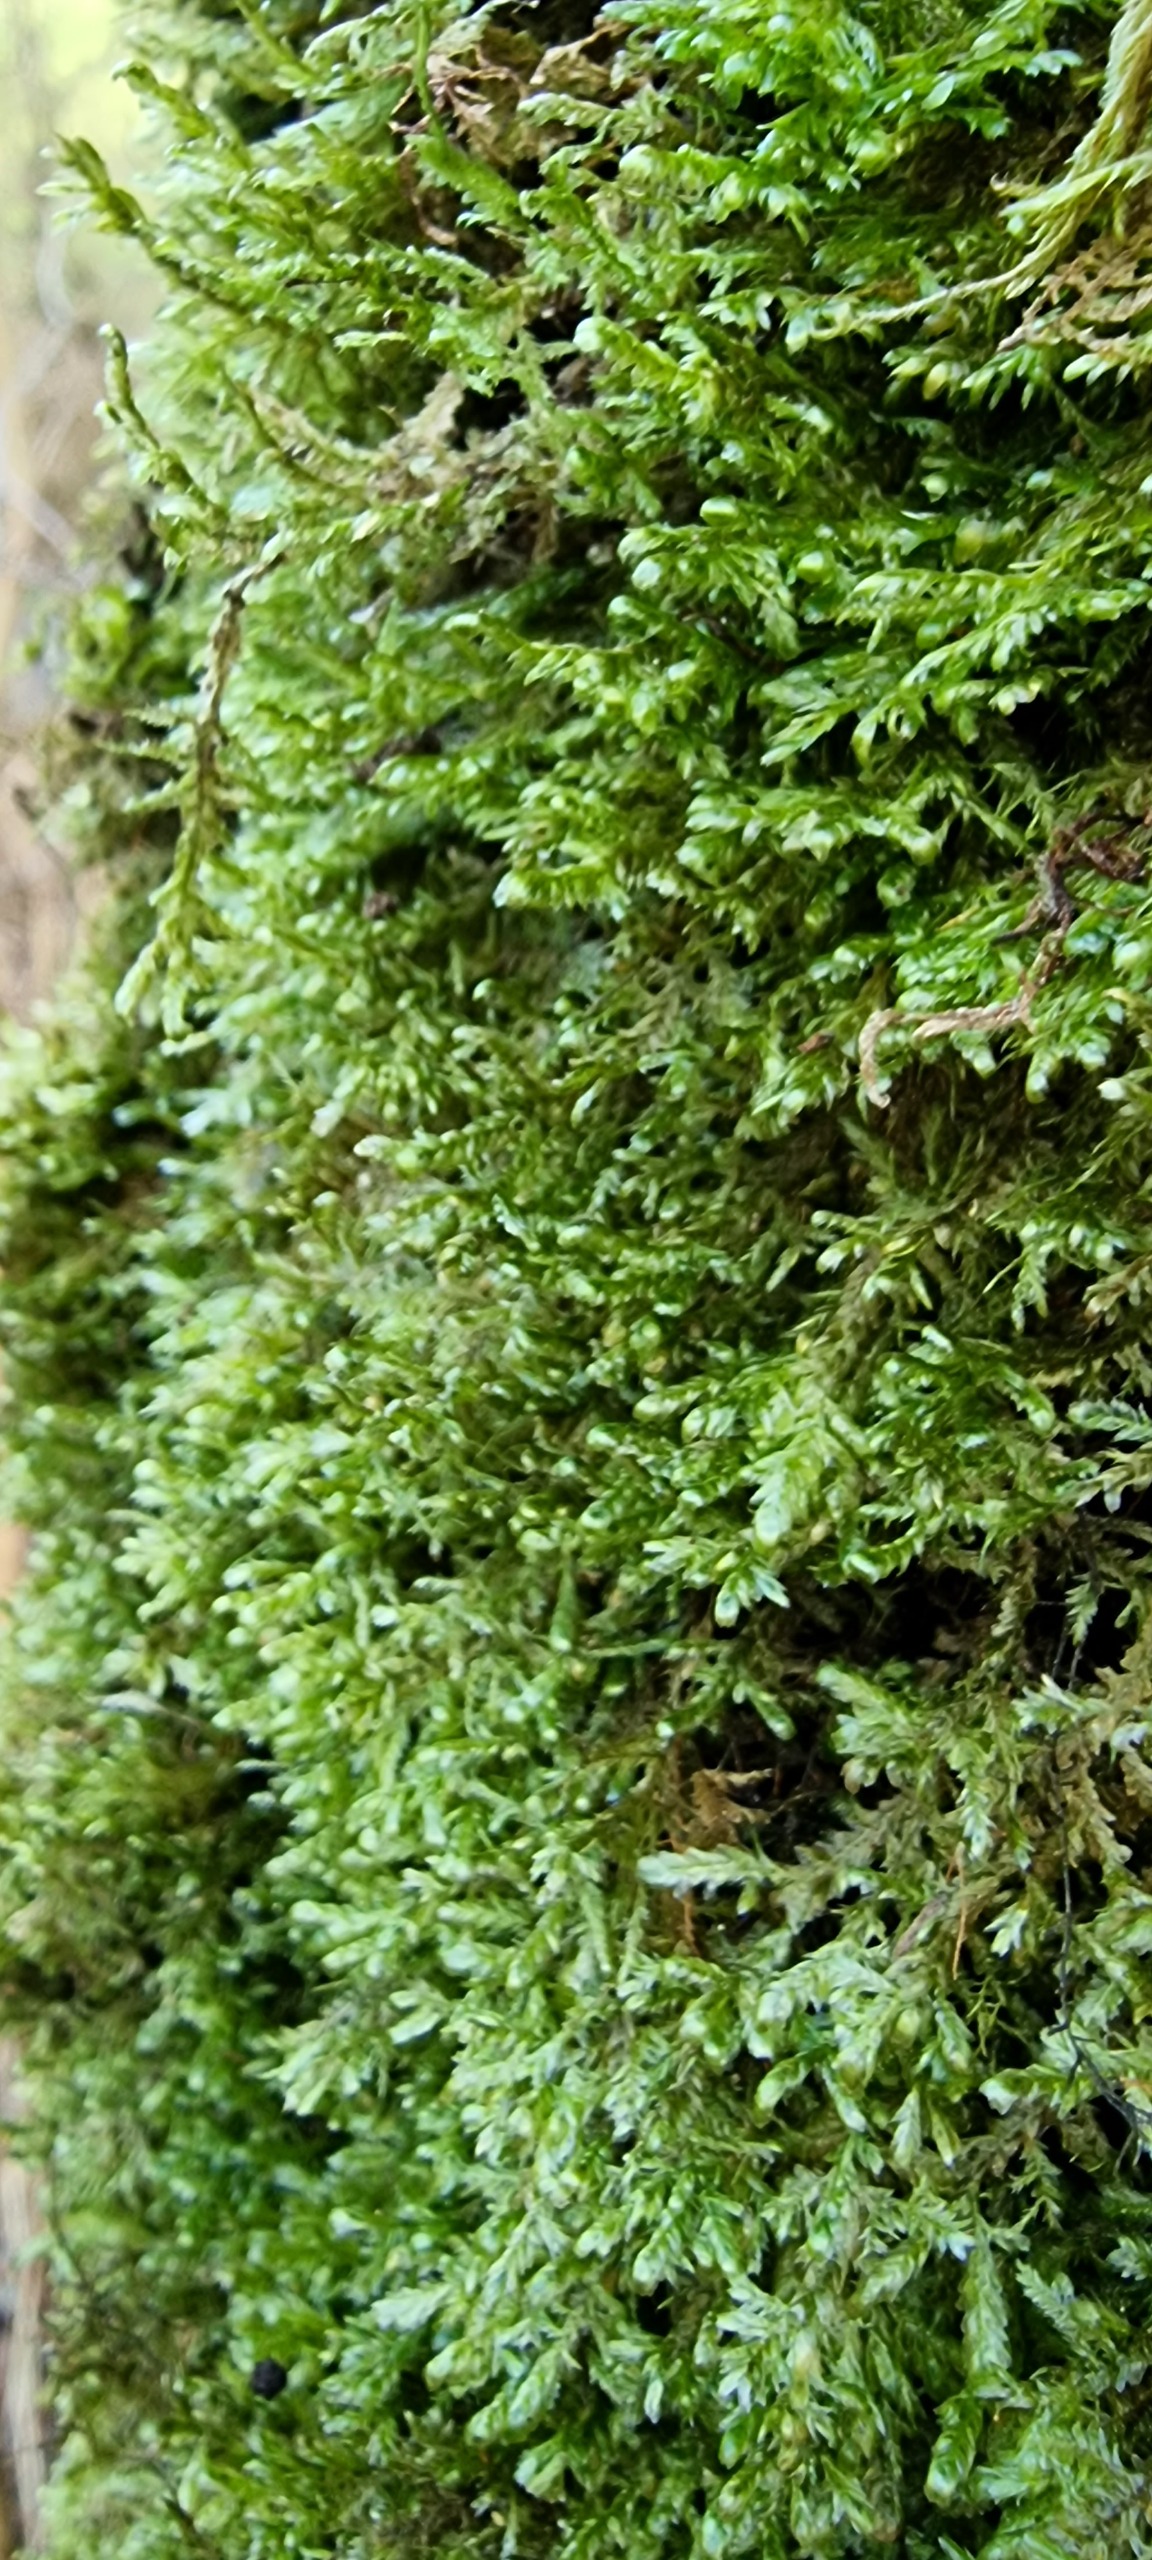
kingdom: Plantae
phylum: Bryophyta
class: Bryopsida
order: Hypnales
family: Neckeraceae
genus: Alleniella
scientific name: Alleniella complanata
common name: Almindelig fladmos
